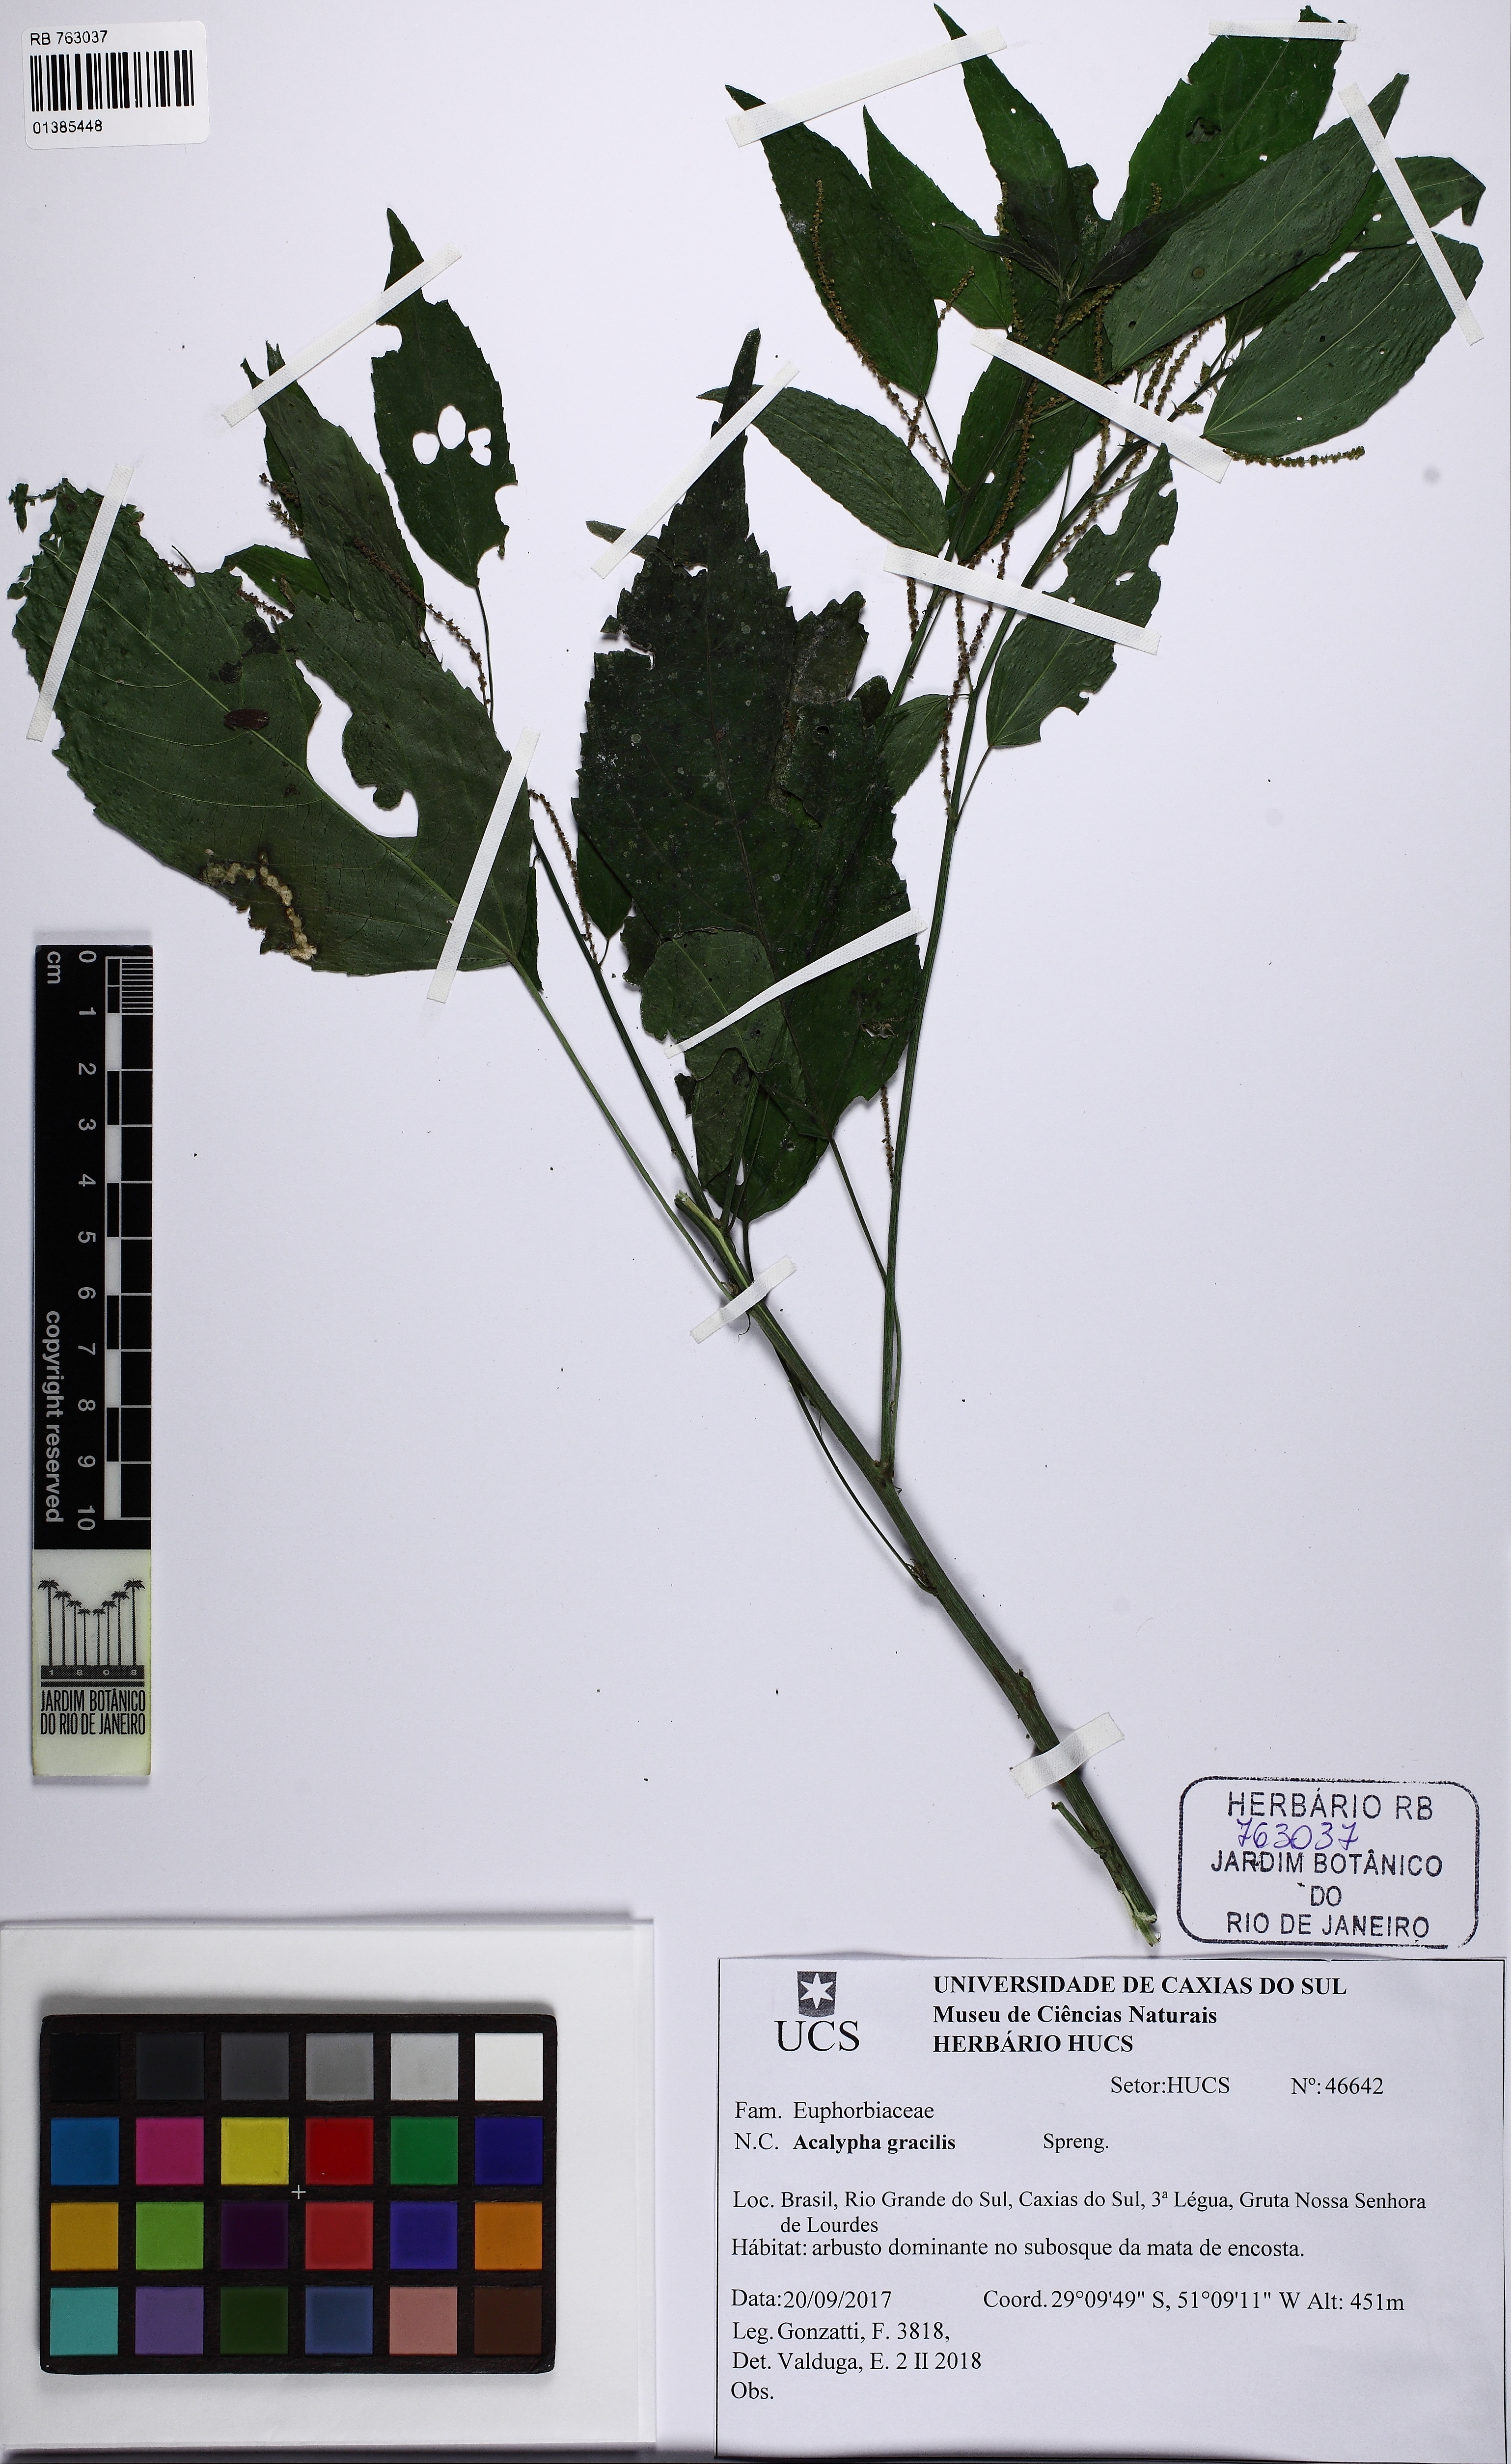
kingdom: Plantae
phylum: Tracheophyta
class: Magnoliopsida
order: Malpighiales
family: Euphorbiaceae
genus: Acalypha
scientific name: Acalypha gracilis
